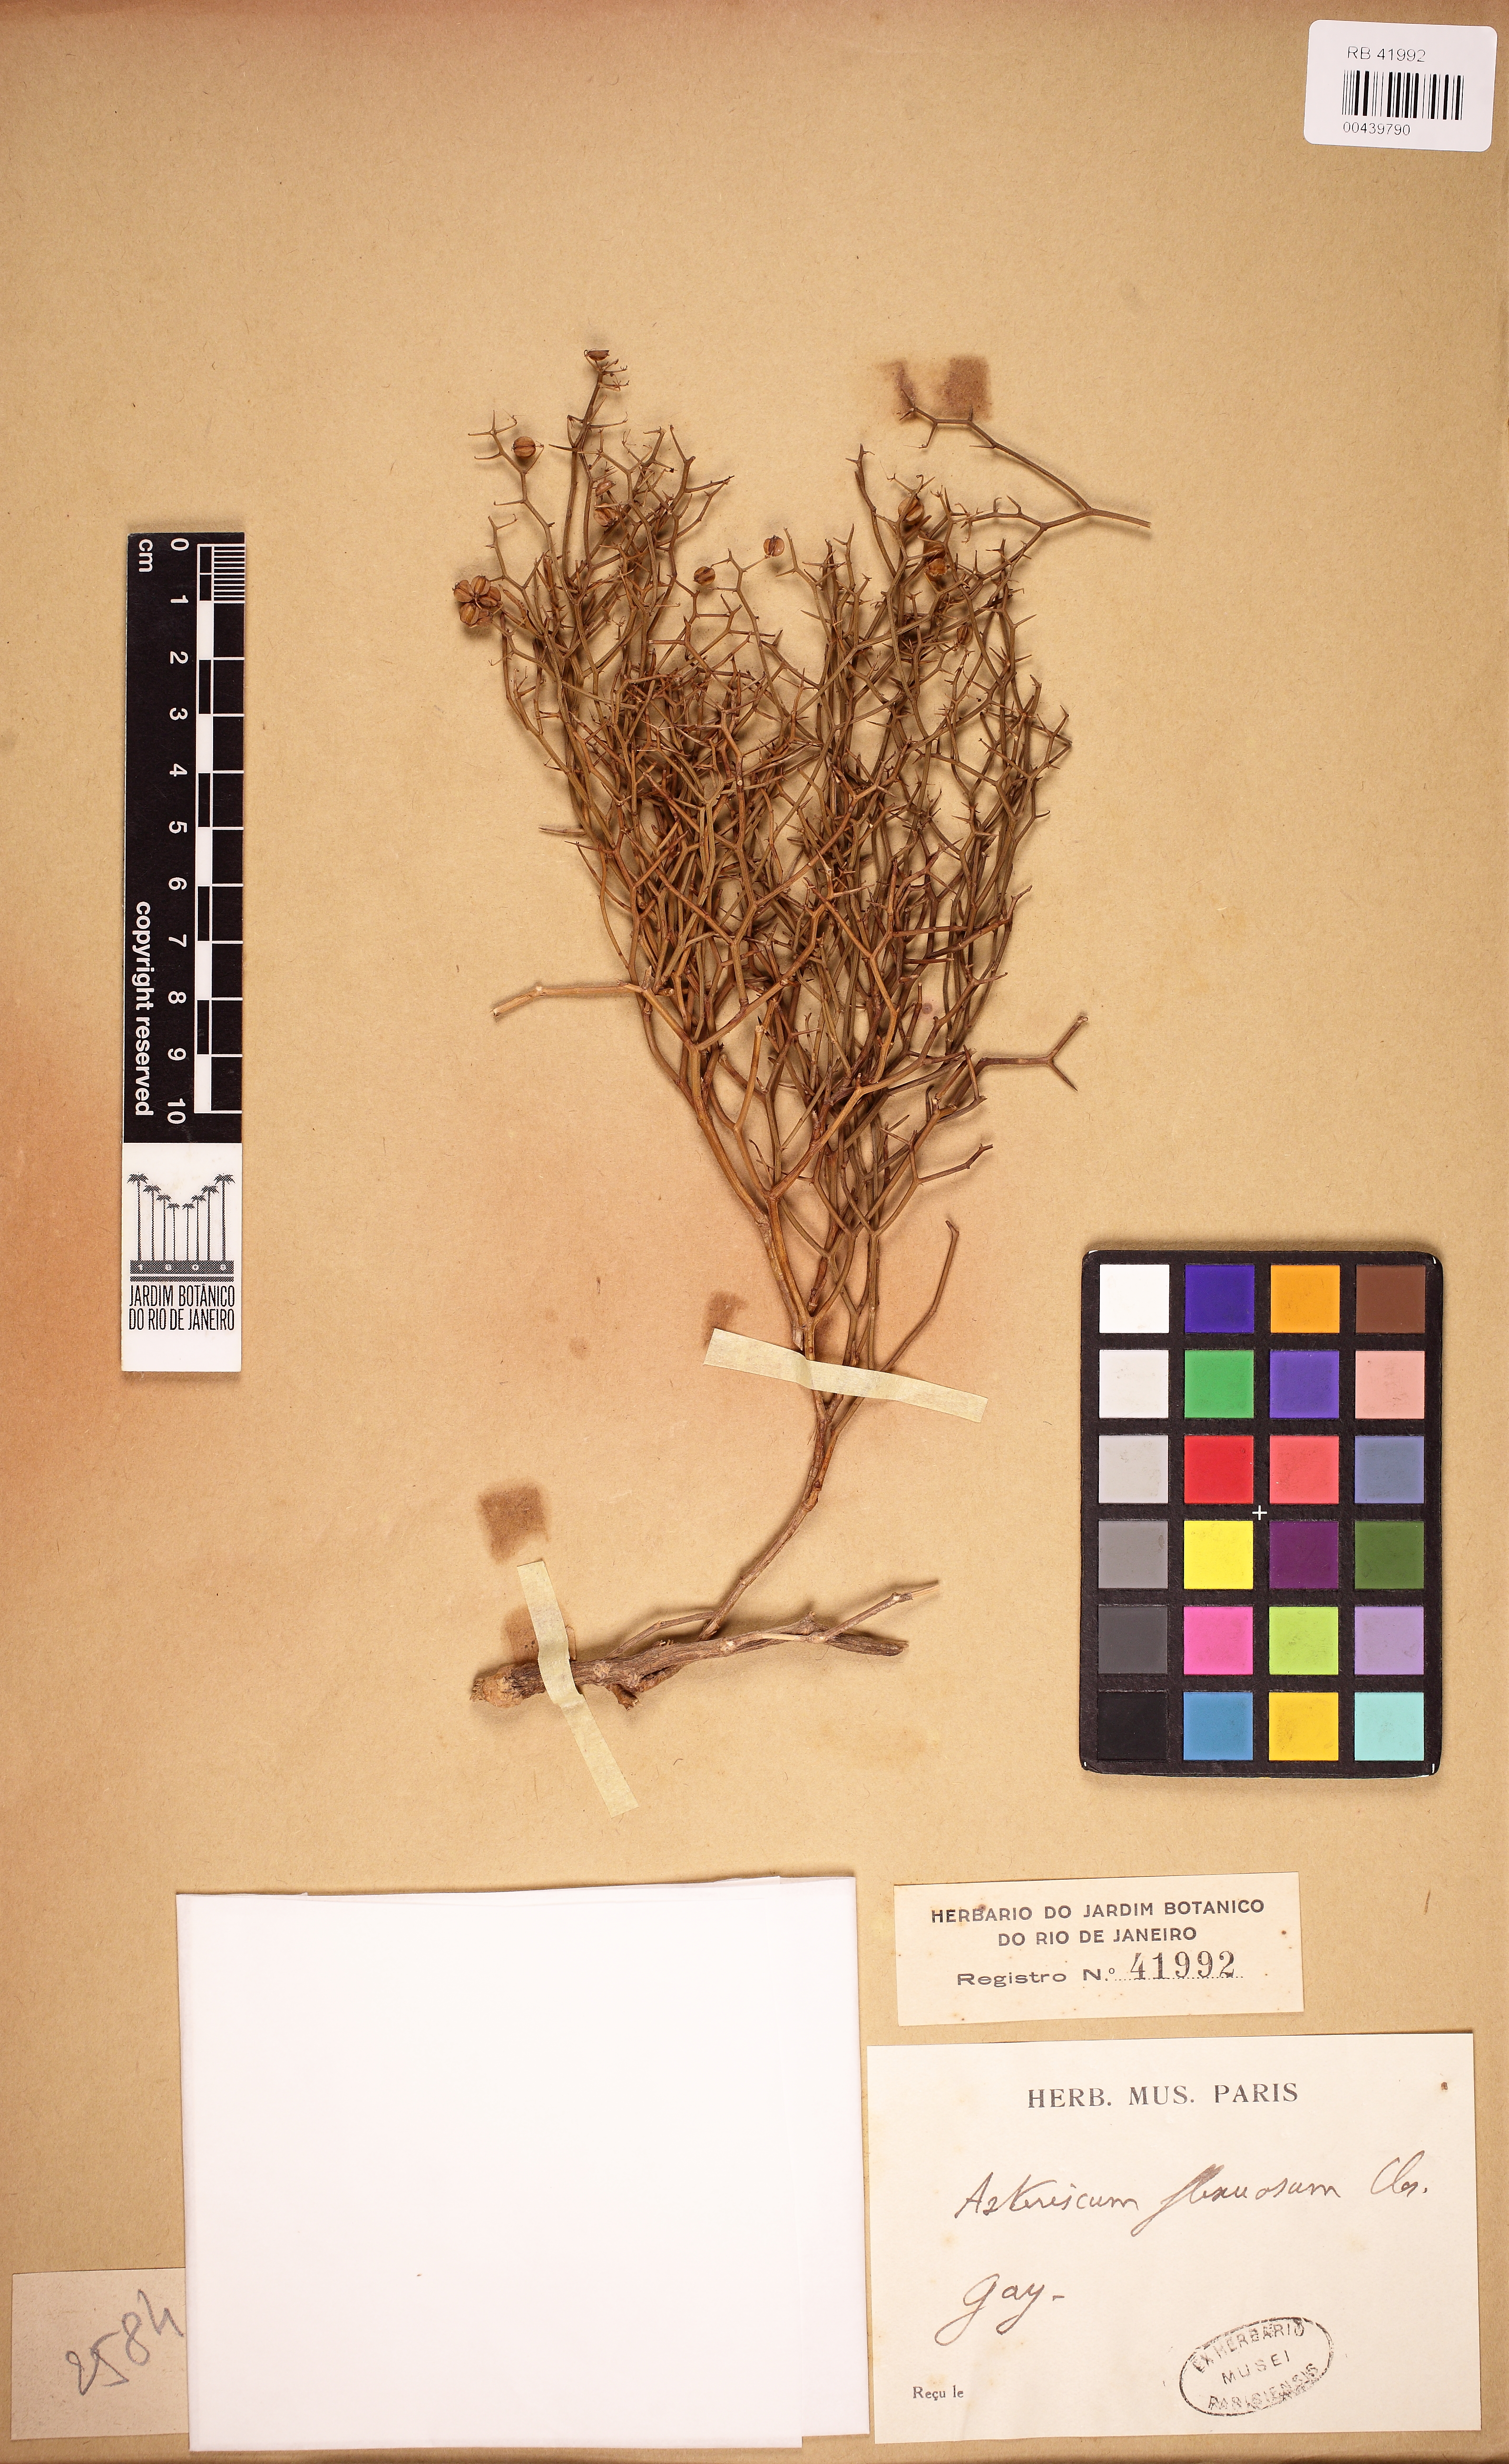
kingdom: Plantae
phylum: Tracheophyta
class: Magnoliopsida
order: Apiales
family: Apiaceae
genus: Asteriscium
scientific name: Asteriscium chilense
